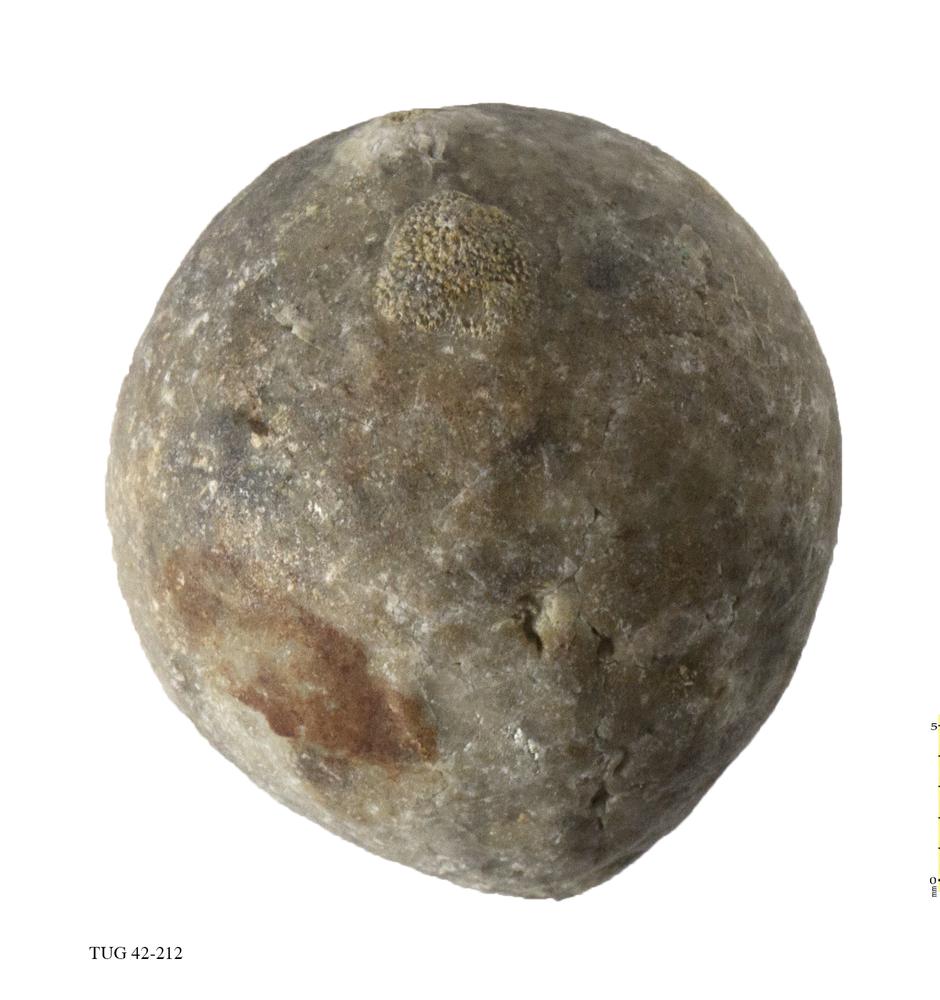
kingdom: Animalia
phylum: Echinodermata
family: Echinosphaeritidae
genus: Echinosphaerites
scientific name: Echinosphaerites Echinus aurantium
